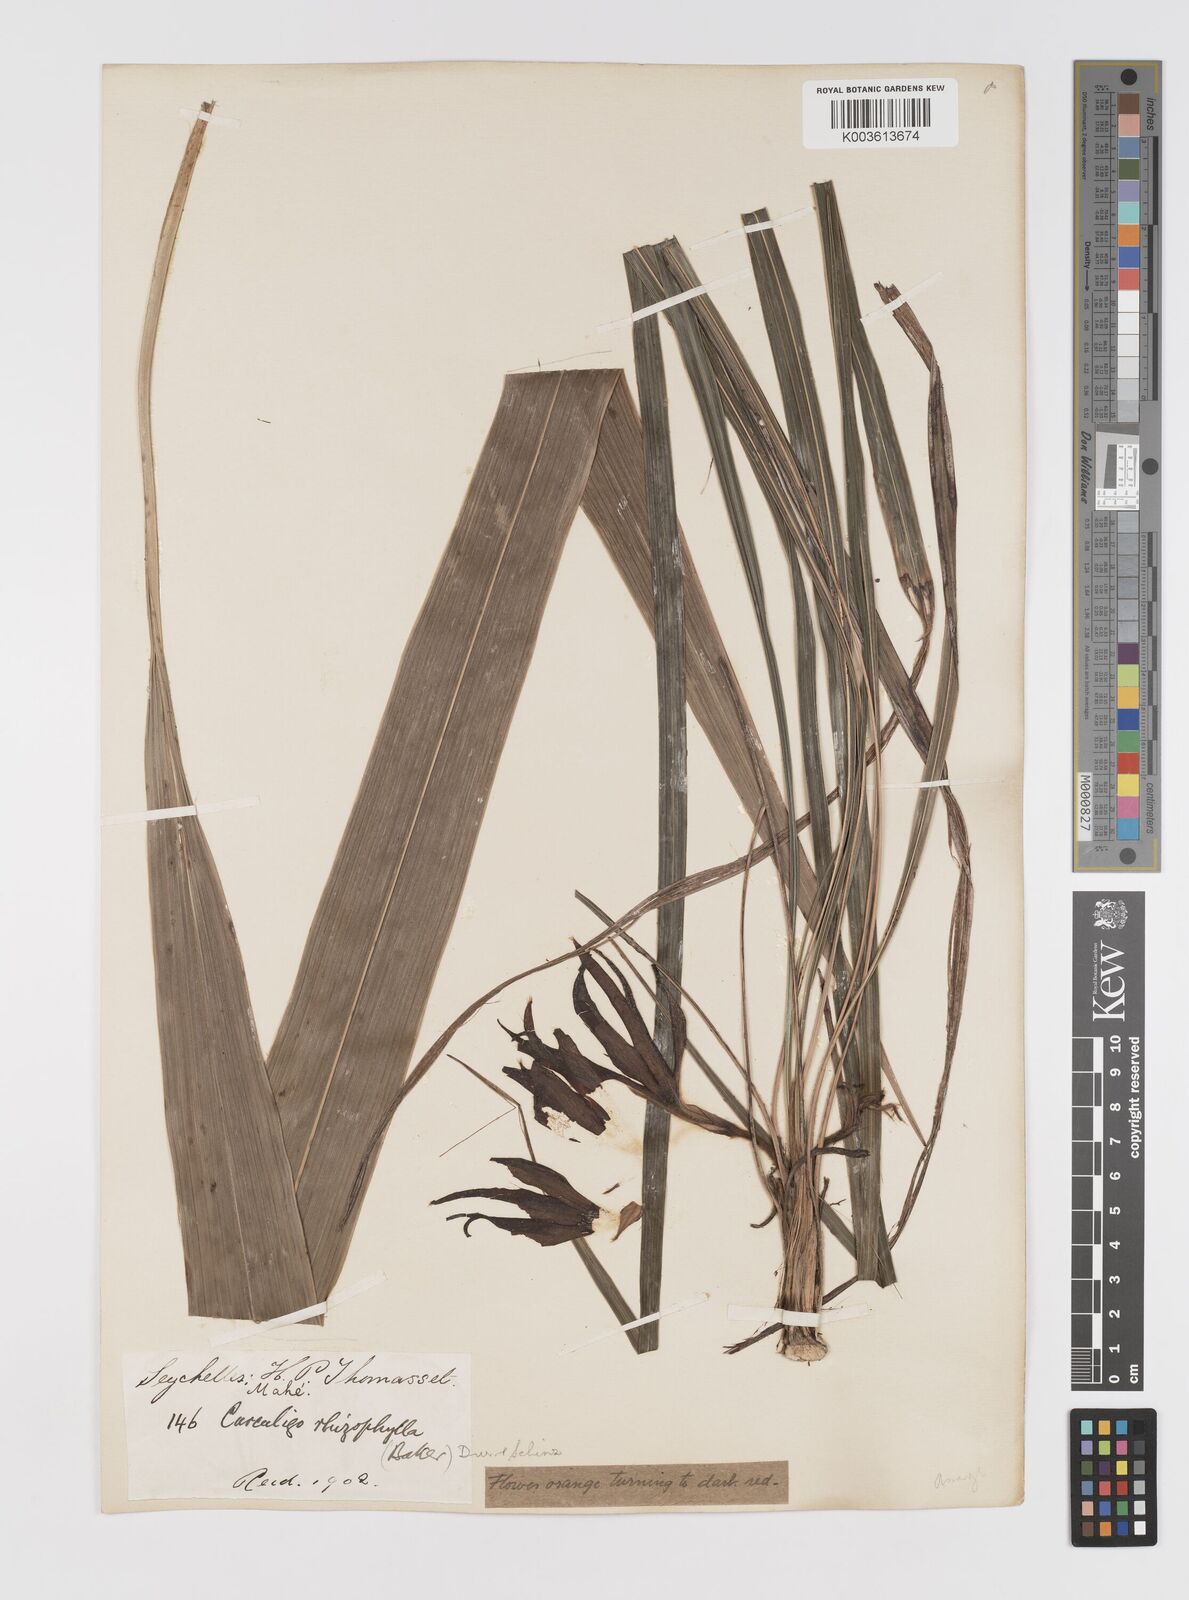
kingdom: Plantae
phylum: Tracheophyta
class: Liliopsida
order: Asparagales
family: Hypoxidaceae
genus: Curculigo
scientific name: Curculigo rhizophylla
